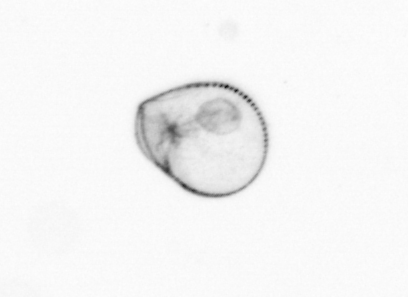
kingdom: Chromista
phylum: Myzozoa
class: Dinophyceae
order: Noctilucales
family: Noctilucaceae
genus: Noctiluca
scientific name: Noctiluca scintillans
